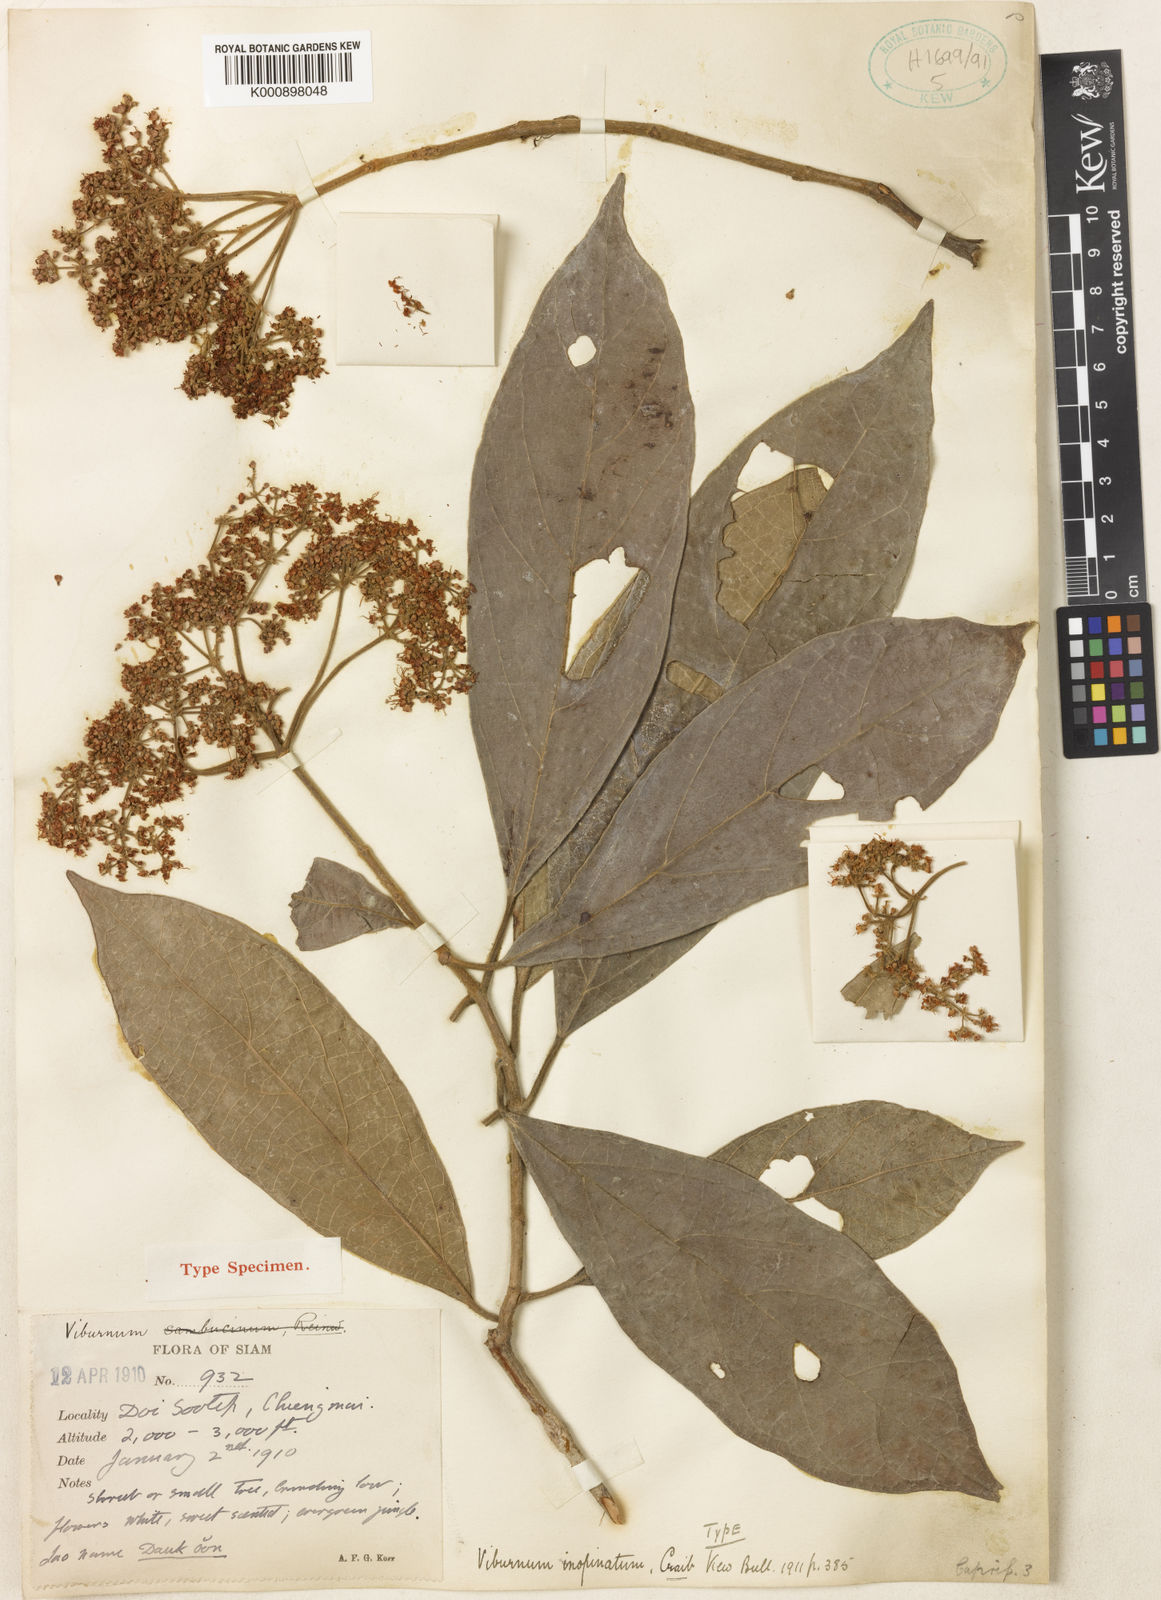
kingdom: Plantae
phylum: Tracheophyta
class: Magnoliopsida
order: Dipsacales
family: Viburnaceae
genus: Viburnum
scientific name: Viburnum inopinatum
